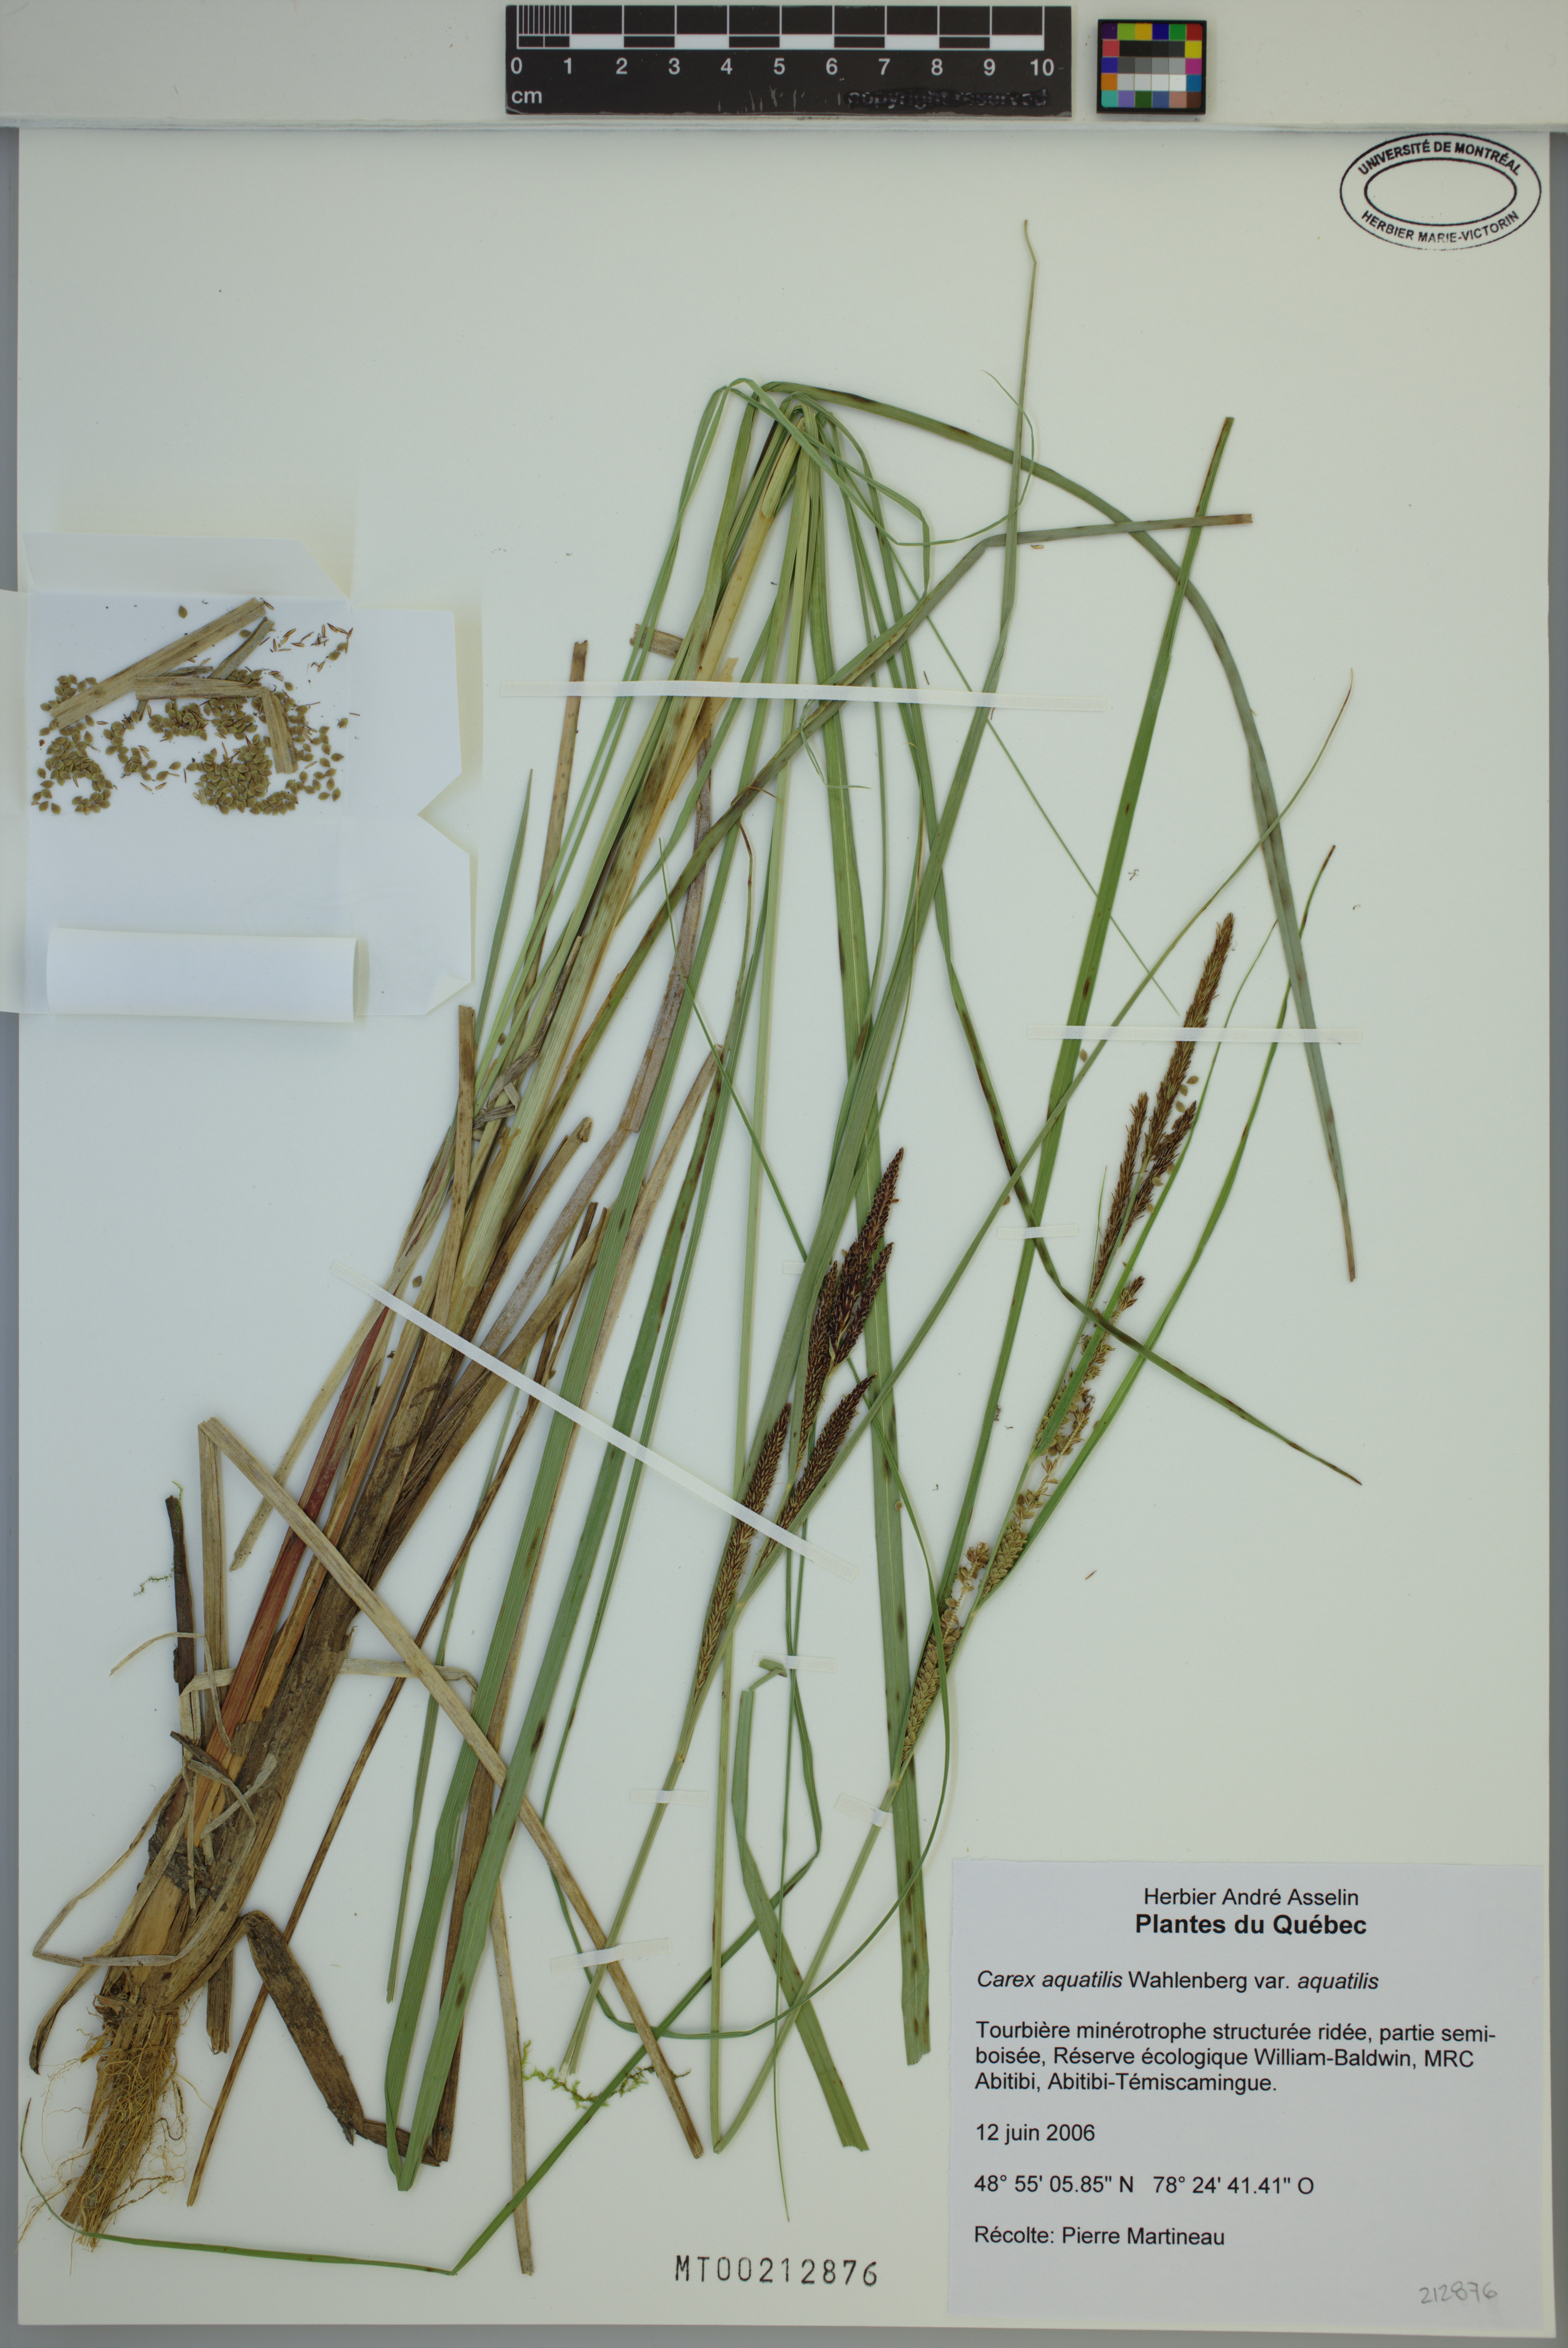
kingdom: Plantae
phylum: Tracheophyta
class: Liliopsida
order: Poales
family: Cyperaceae
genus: Carex
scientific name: Carex aquatilis
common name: Water sedge
